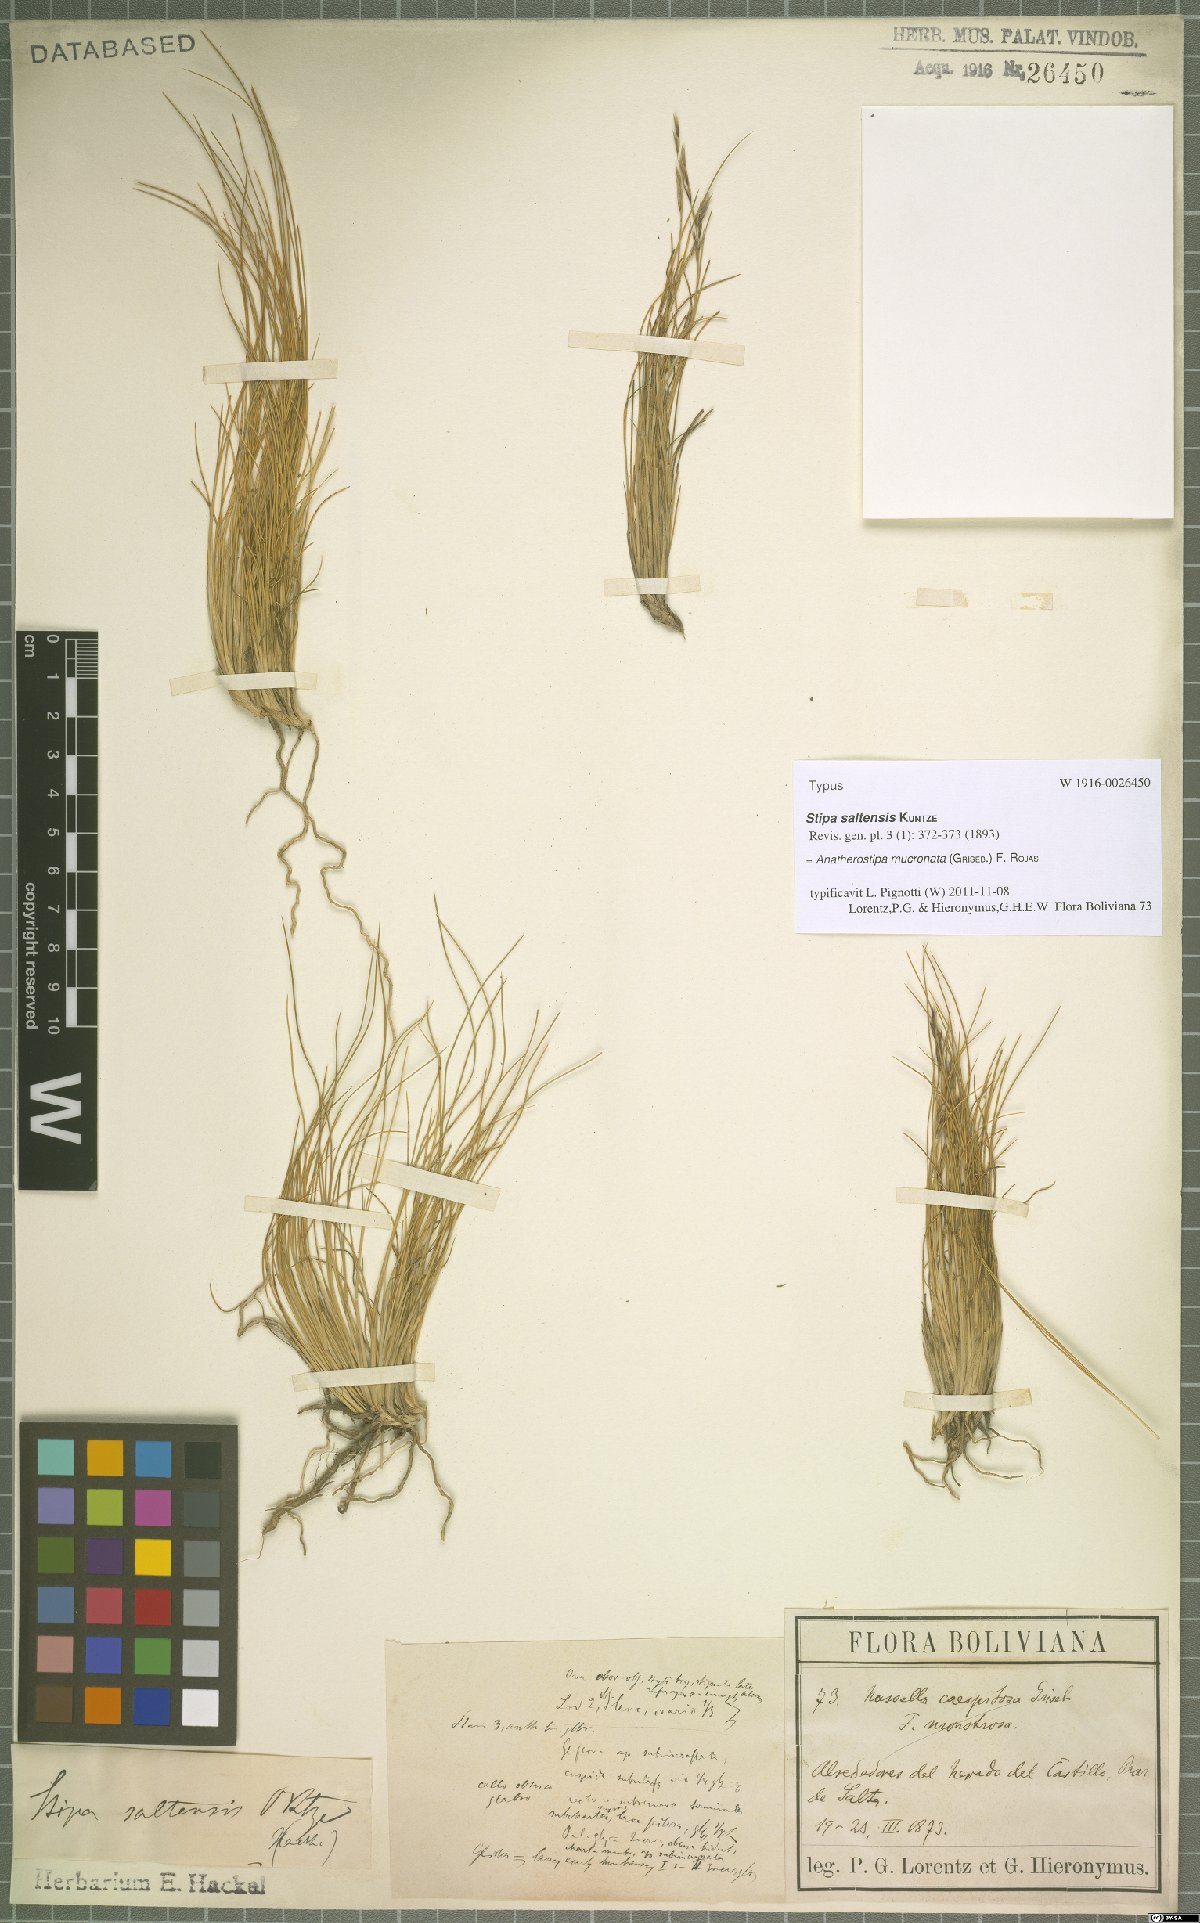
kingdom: Plantae
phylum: Tracheophyta
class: Liliopsida
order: Poales
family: Poaceae
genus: Nassella
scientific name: Nassella mucronata
